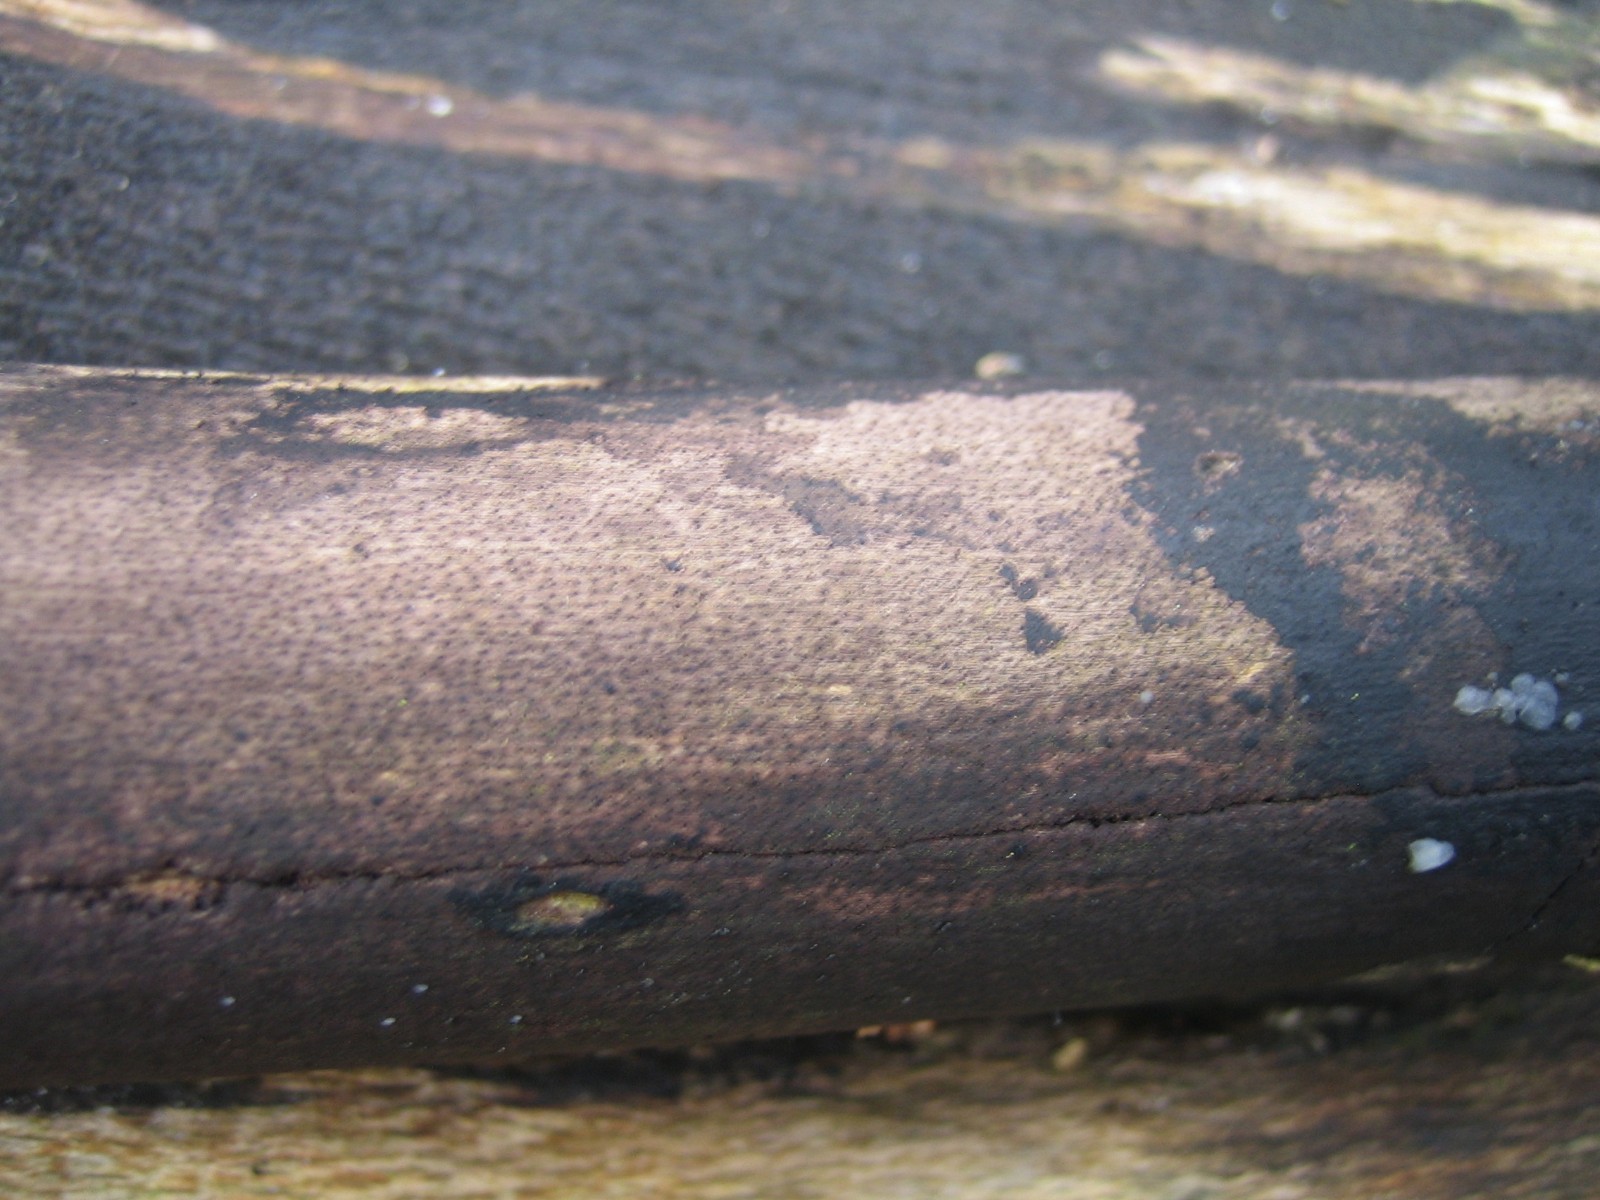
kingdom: Fungi
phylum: Ascomycota
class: Sordariomycetes
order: Xylariales
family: Diatrypaceae
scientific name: Diatrypaceae
